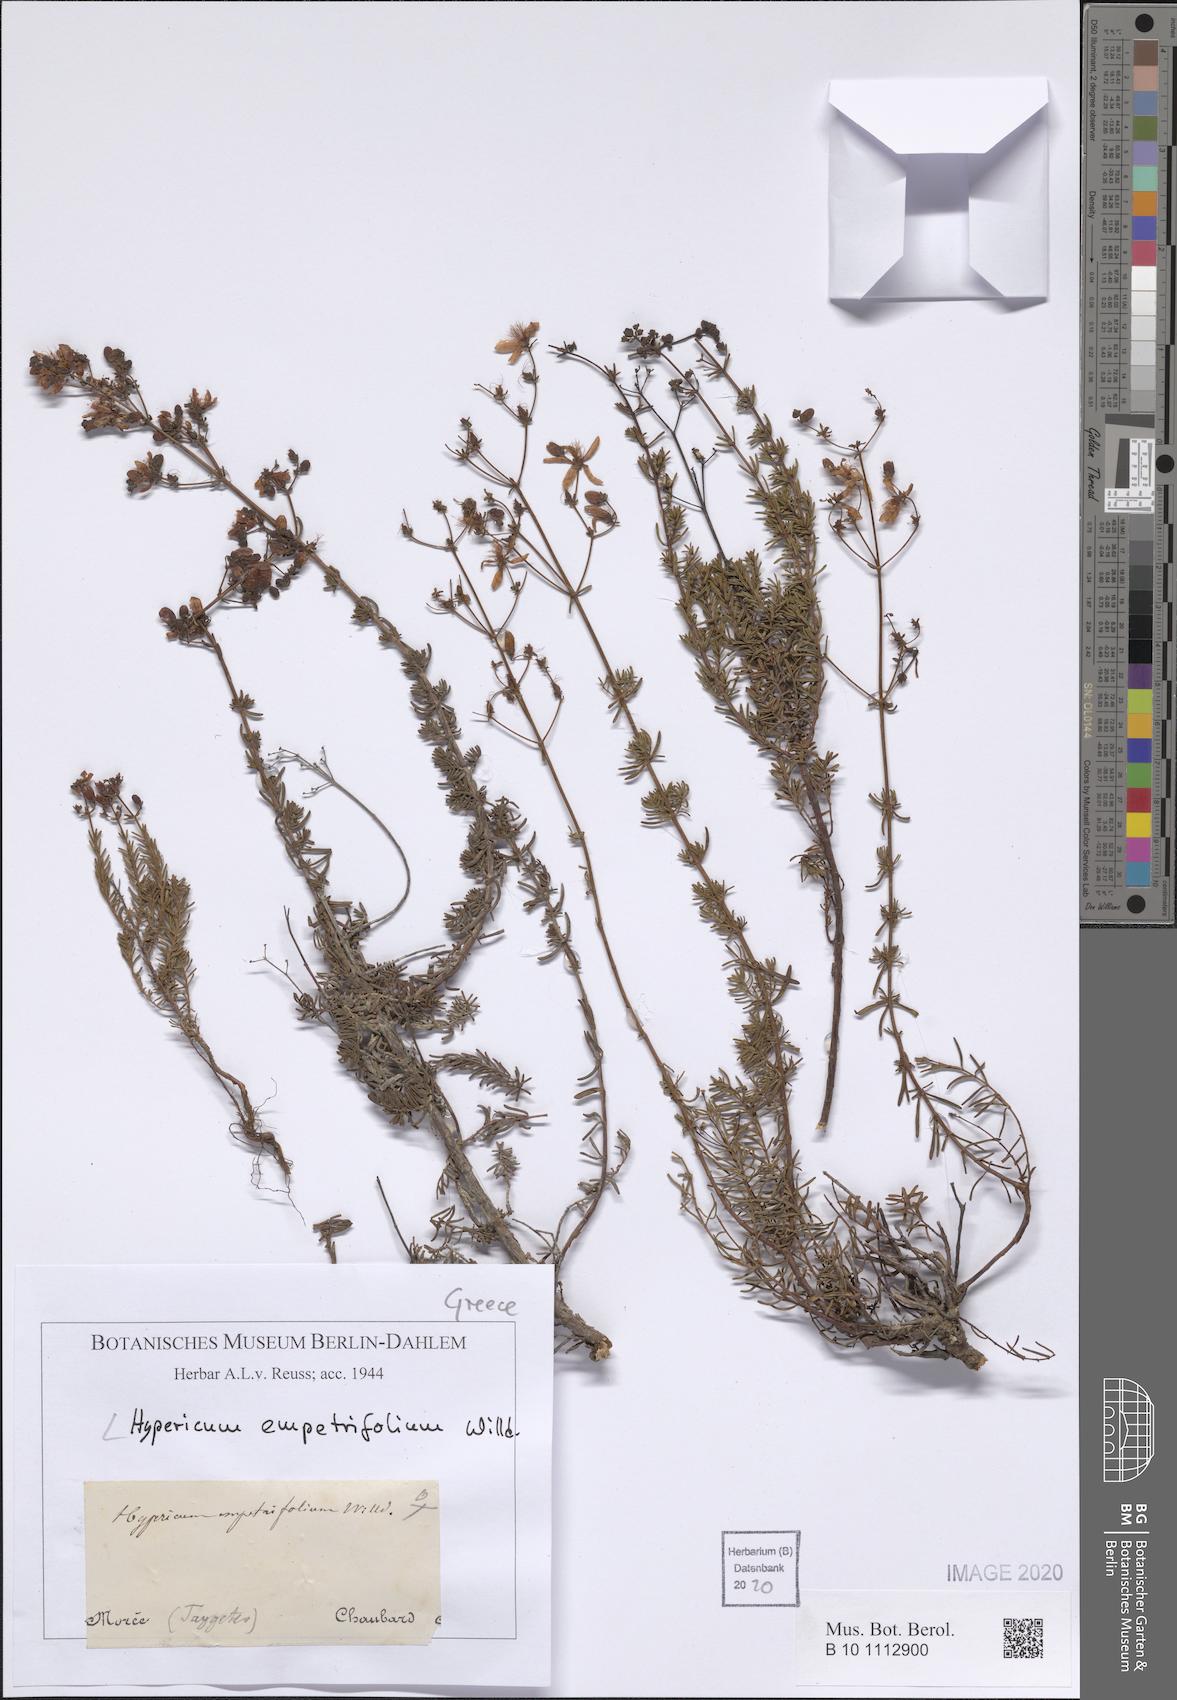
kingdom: Plantae
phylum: Tracheophyta
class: Magnoliopsida
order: Malpighiales
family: Hypericaceae
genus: Hypericum
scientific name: Hypericum empetrifolium
